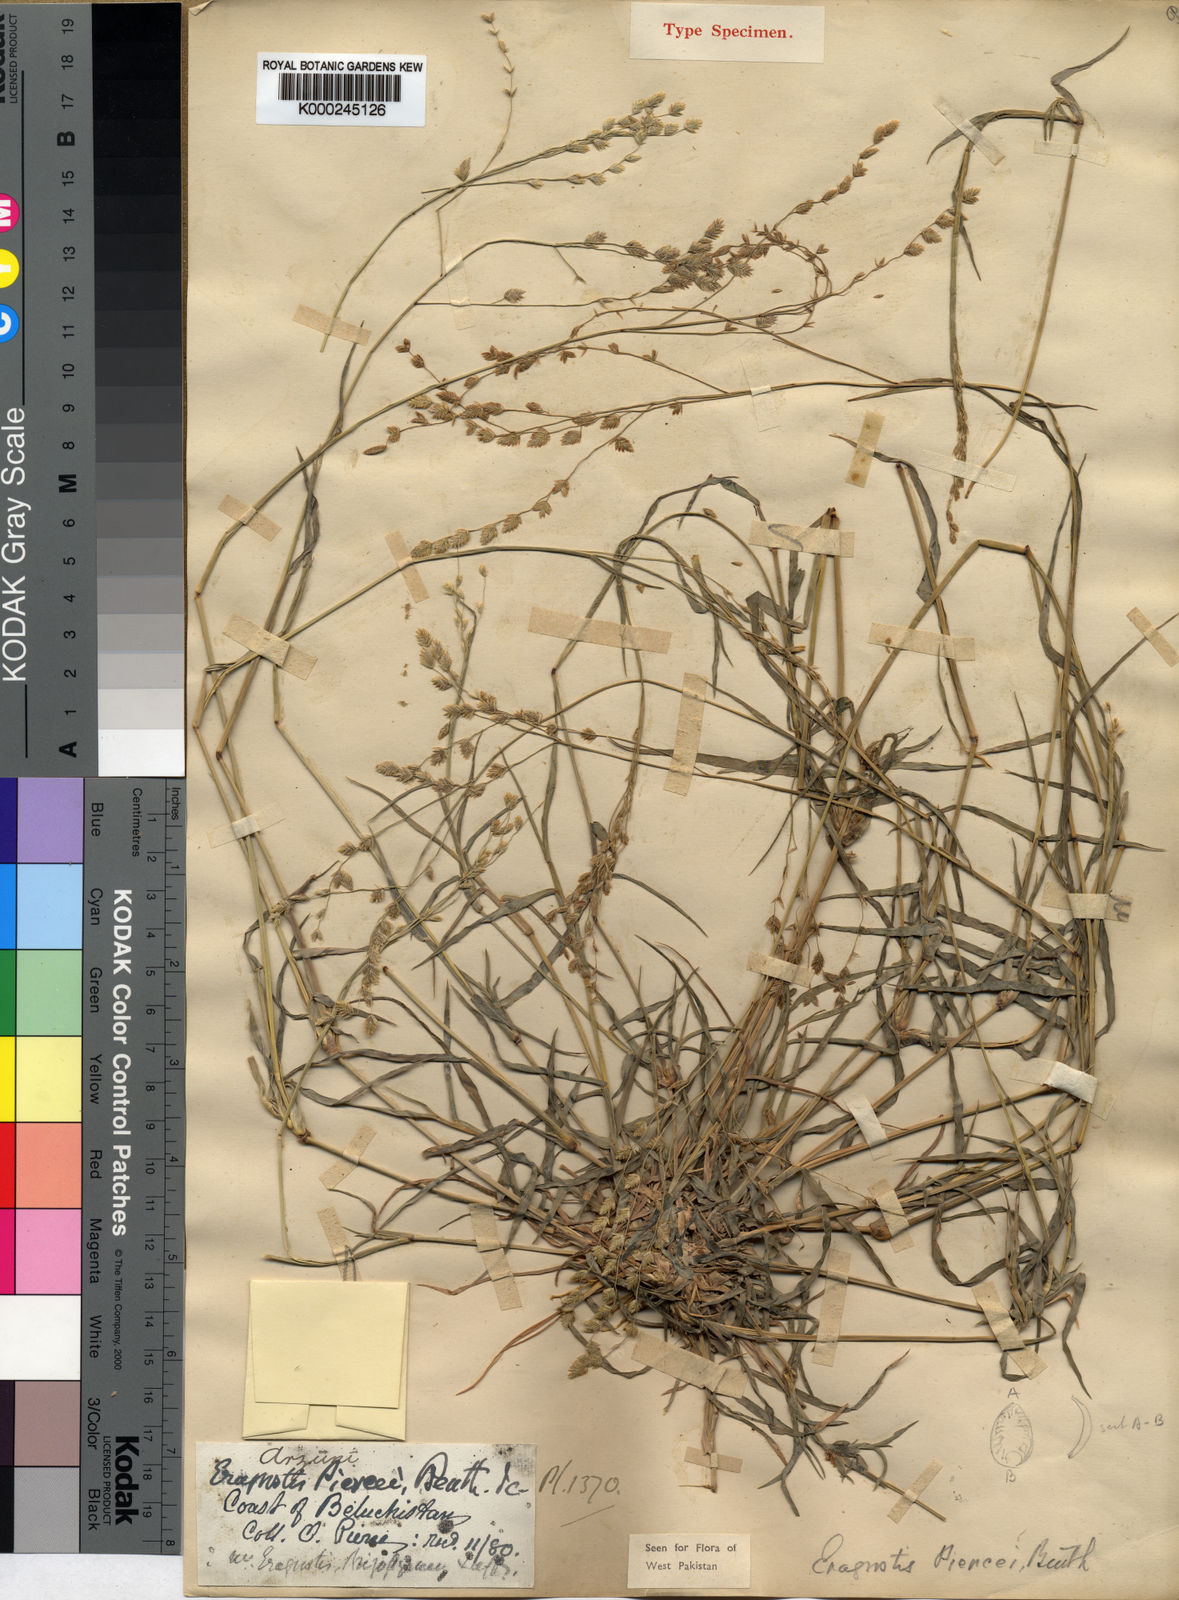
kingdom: Plantae
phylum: Tracheophyta
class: Liliopsida
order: Poales
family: Poaceae
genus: Coelachyrum
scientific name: Coelachyrum piercei
